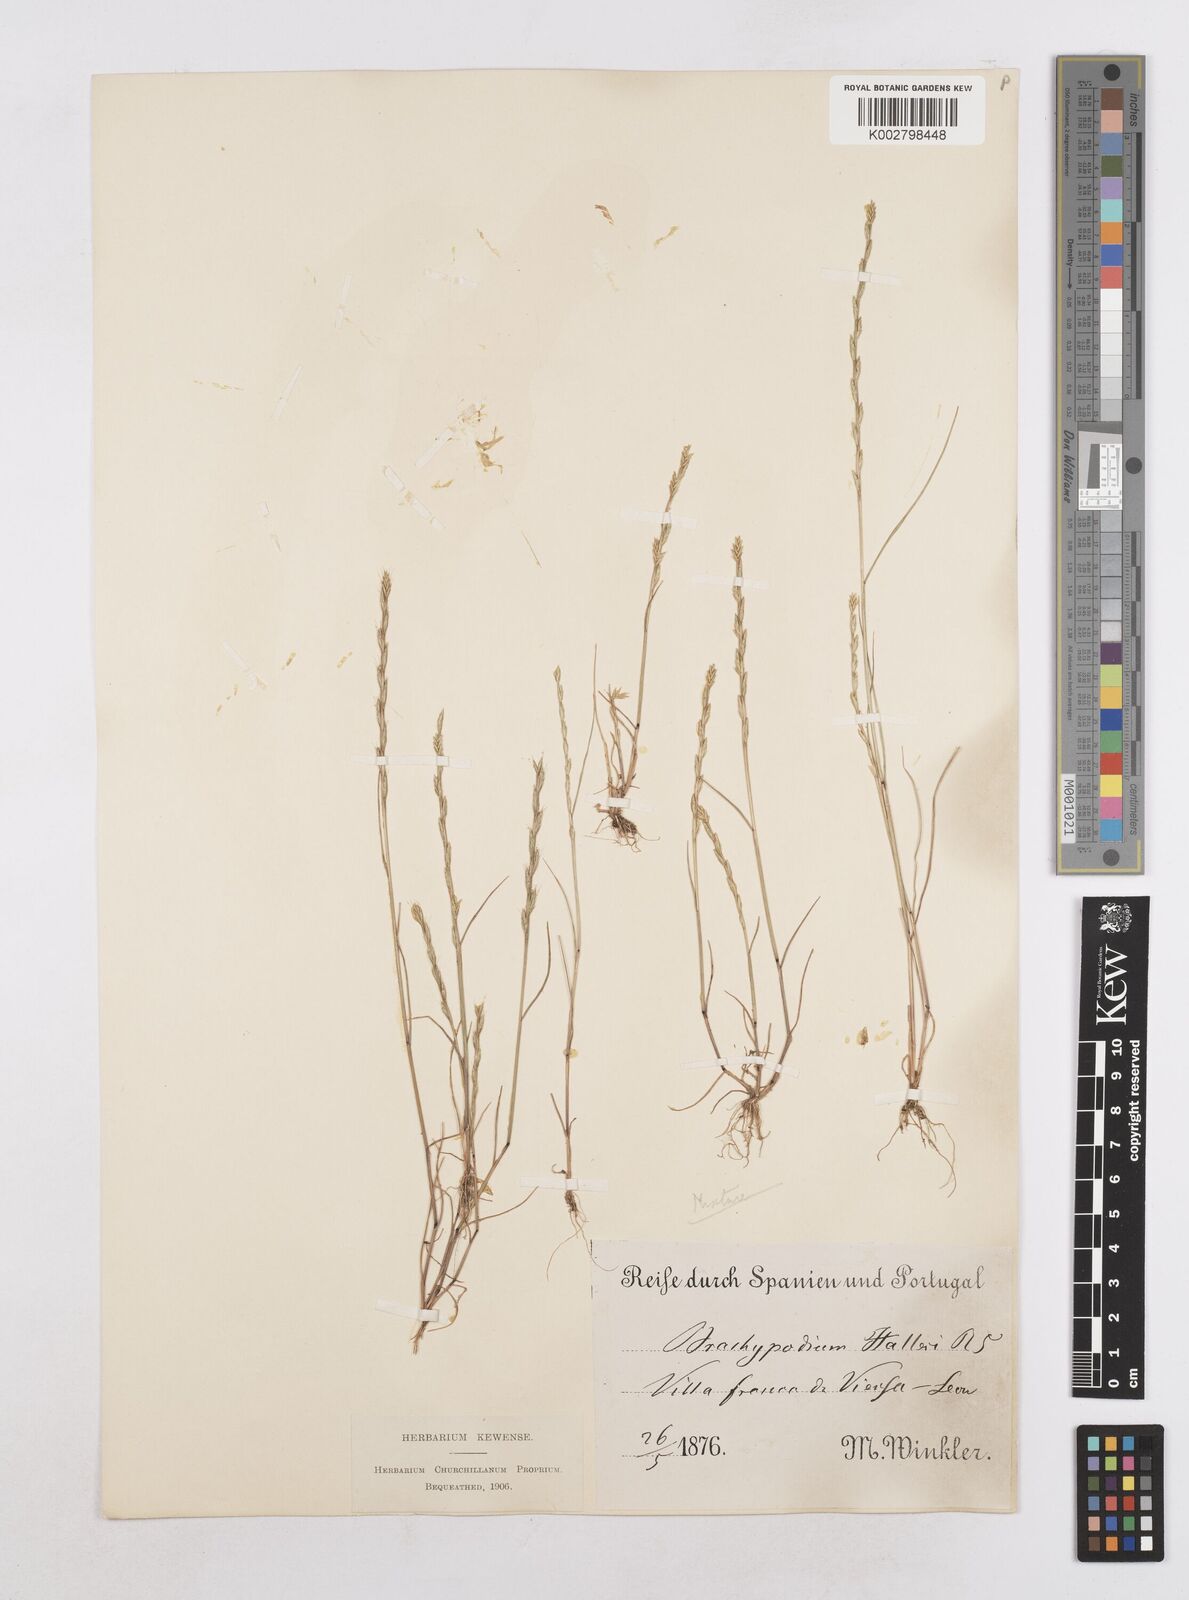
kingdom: Plantae
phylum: Tracheophyta
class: Liliopsida
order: Poales
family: Poaceae
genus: Festuca
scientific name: Festuca lachenalii
